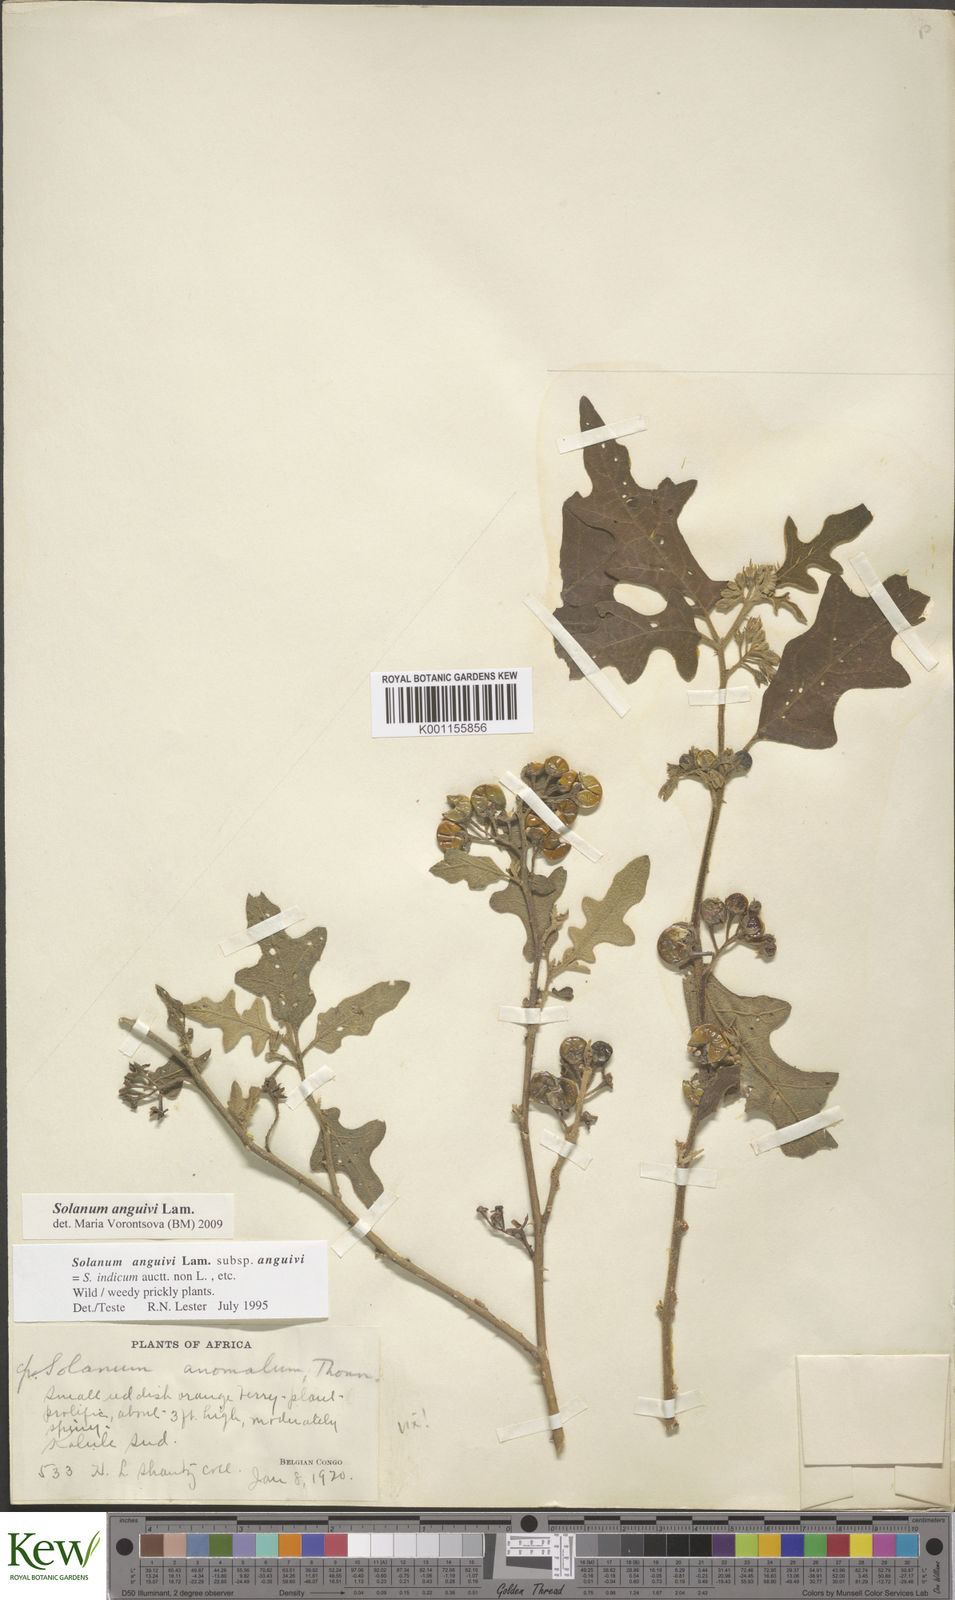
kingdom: Plantae
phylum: Tracheophyta
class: Magnoliopsida
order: Solanales
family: Solanaceae
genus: Solanum
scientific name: Solanum anguivi
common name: Forest bitterberry
